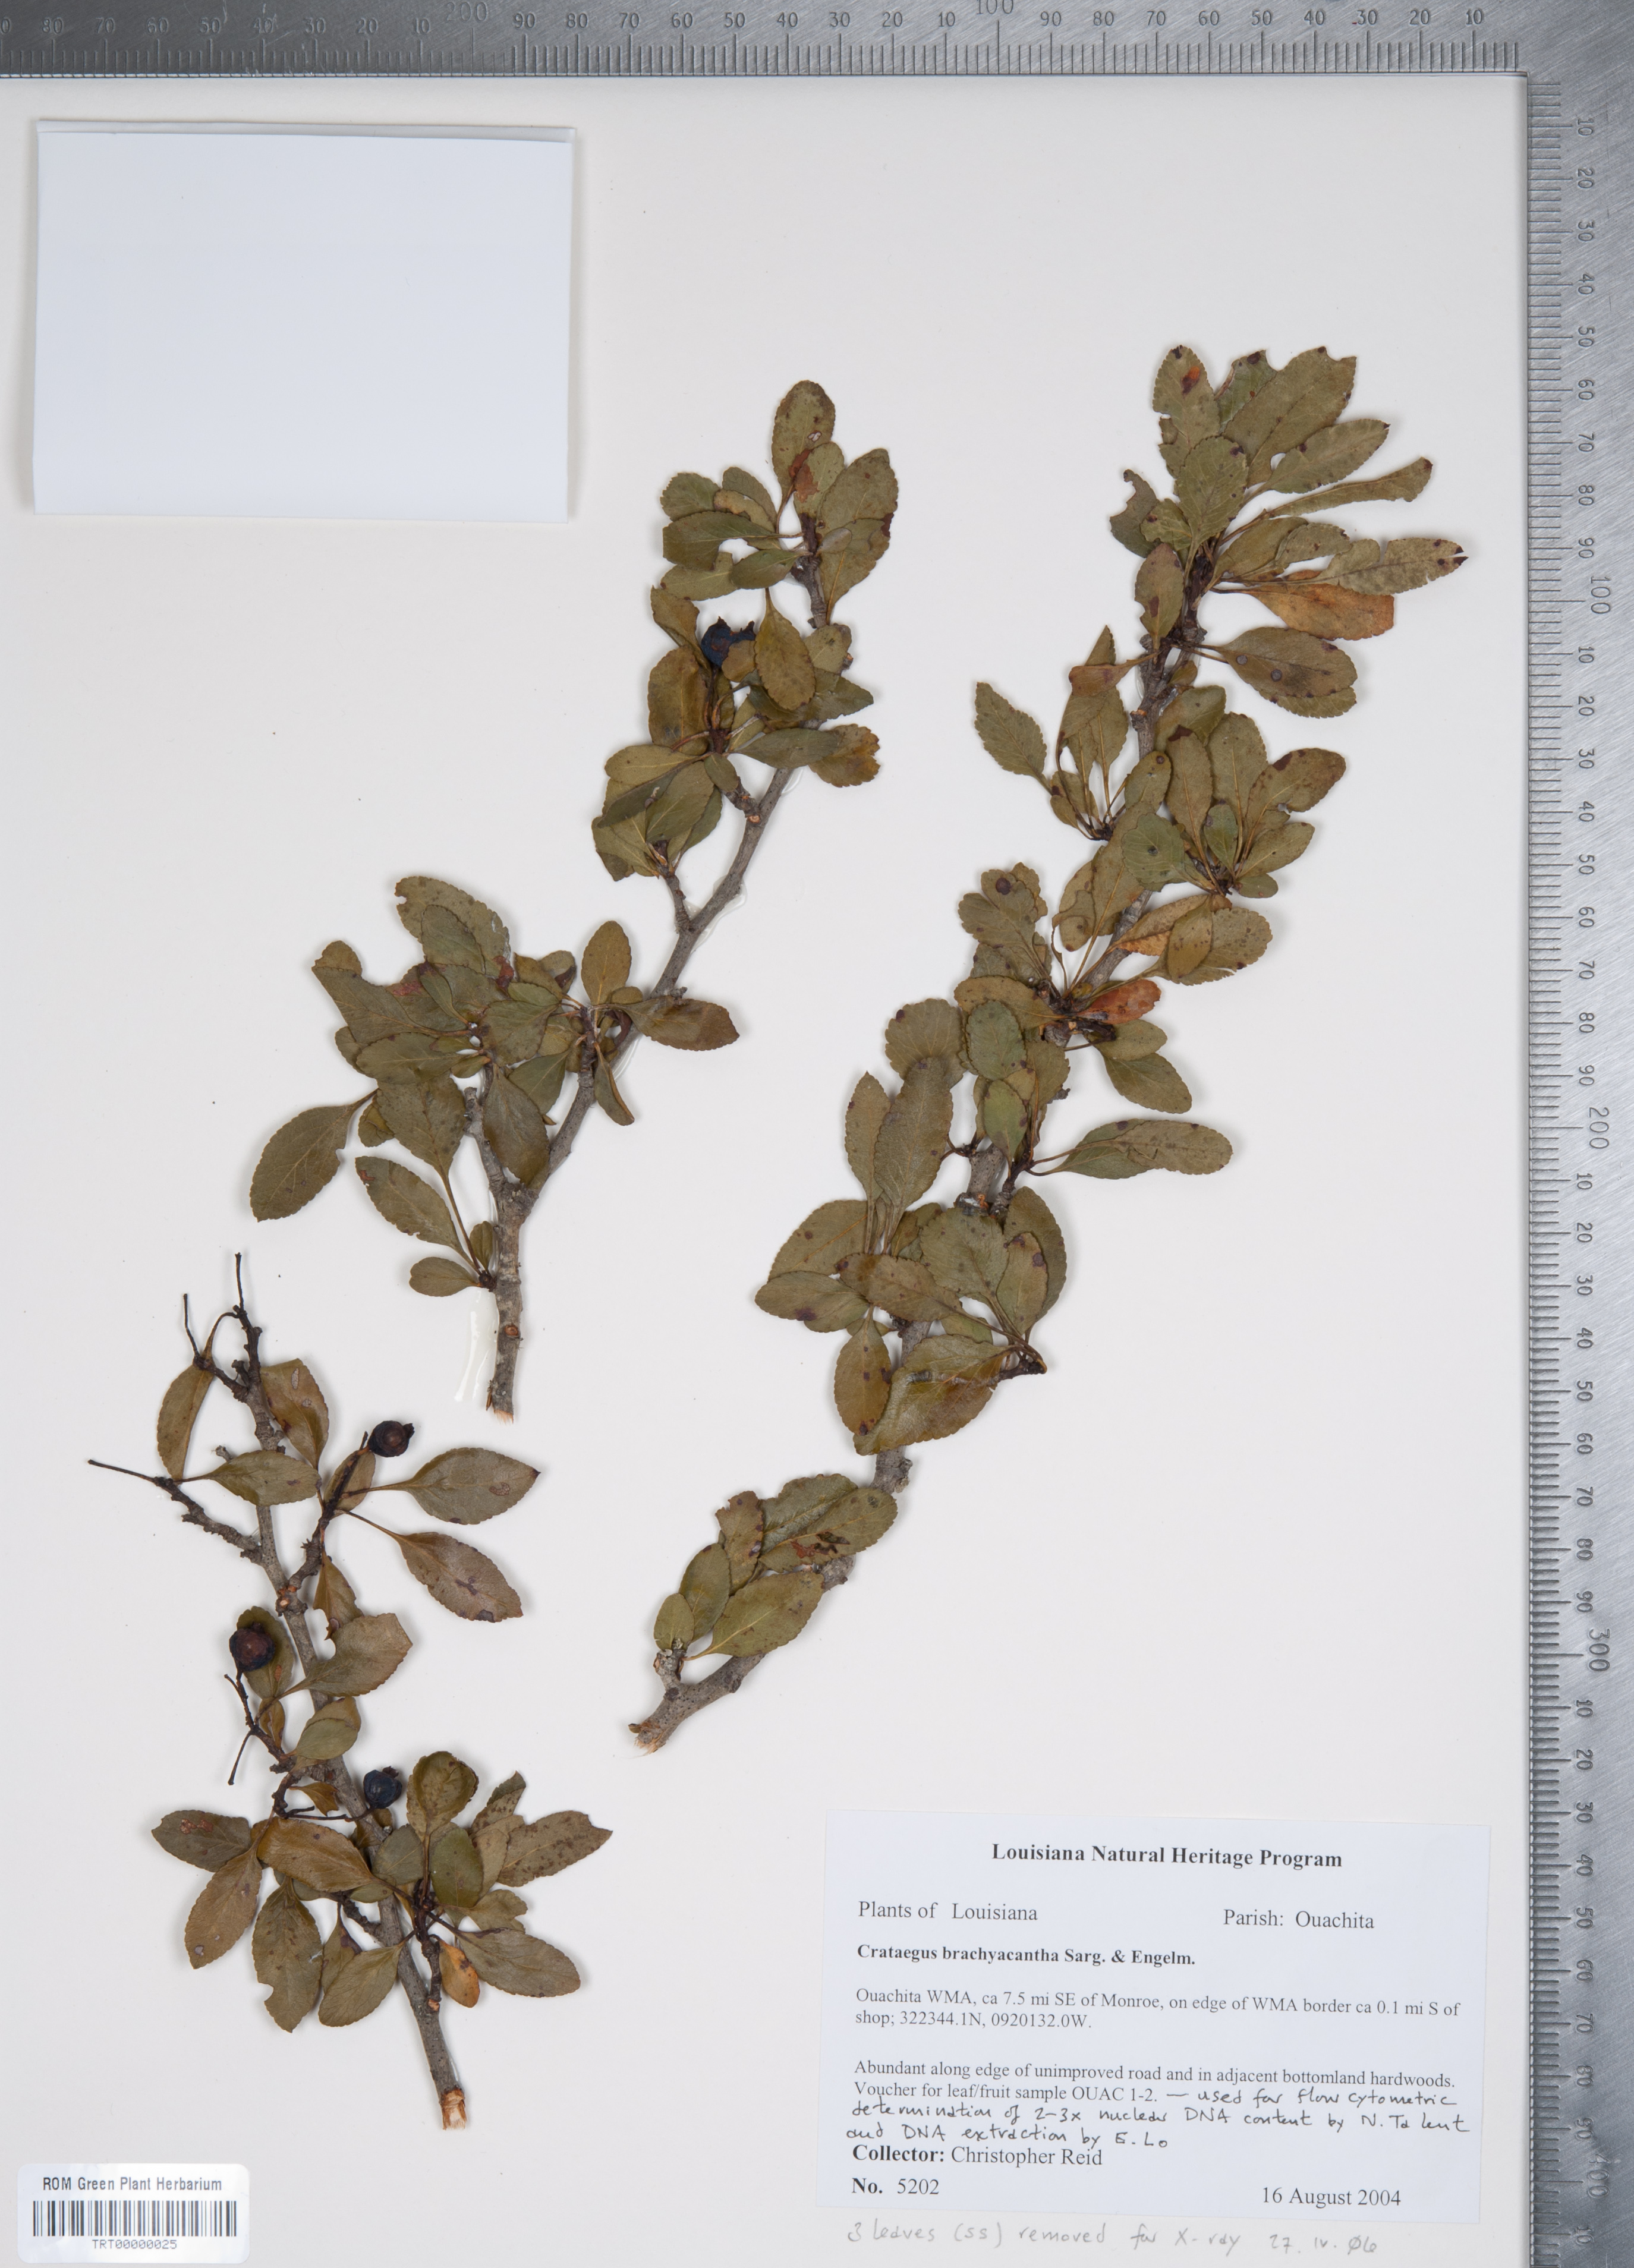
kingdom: Plantae
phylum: Tracheophyta
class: Magnoliopsida
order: Rosales
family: Rosaceae
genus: Crataegus
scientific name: Crataegus brachyacantha
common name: Blueberry-hawthorn
